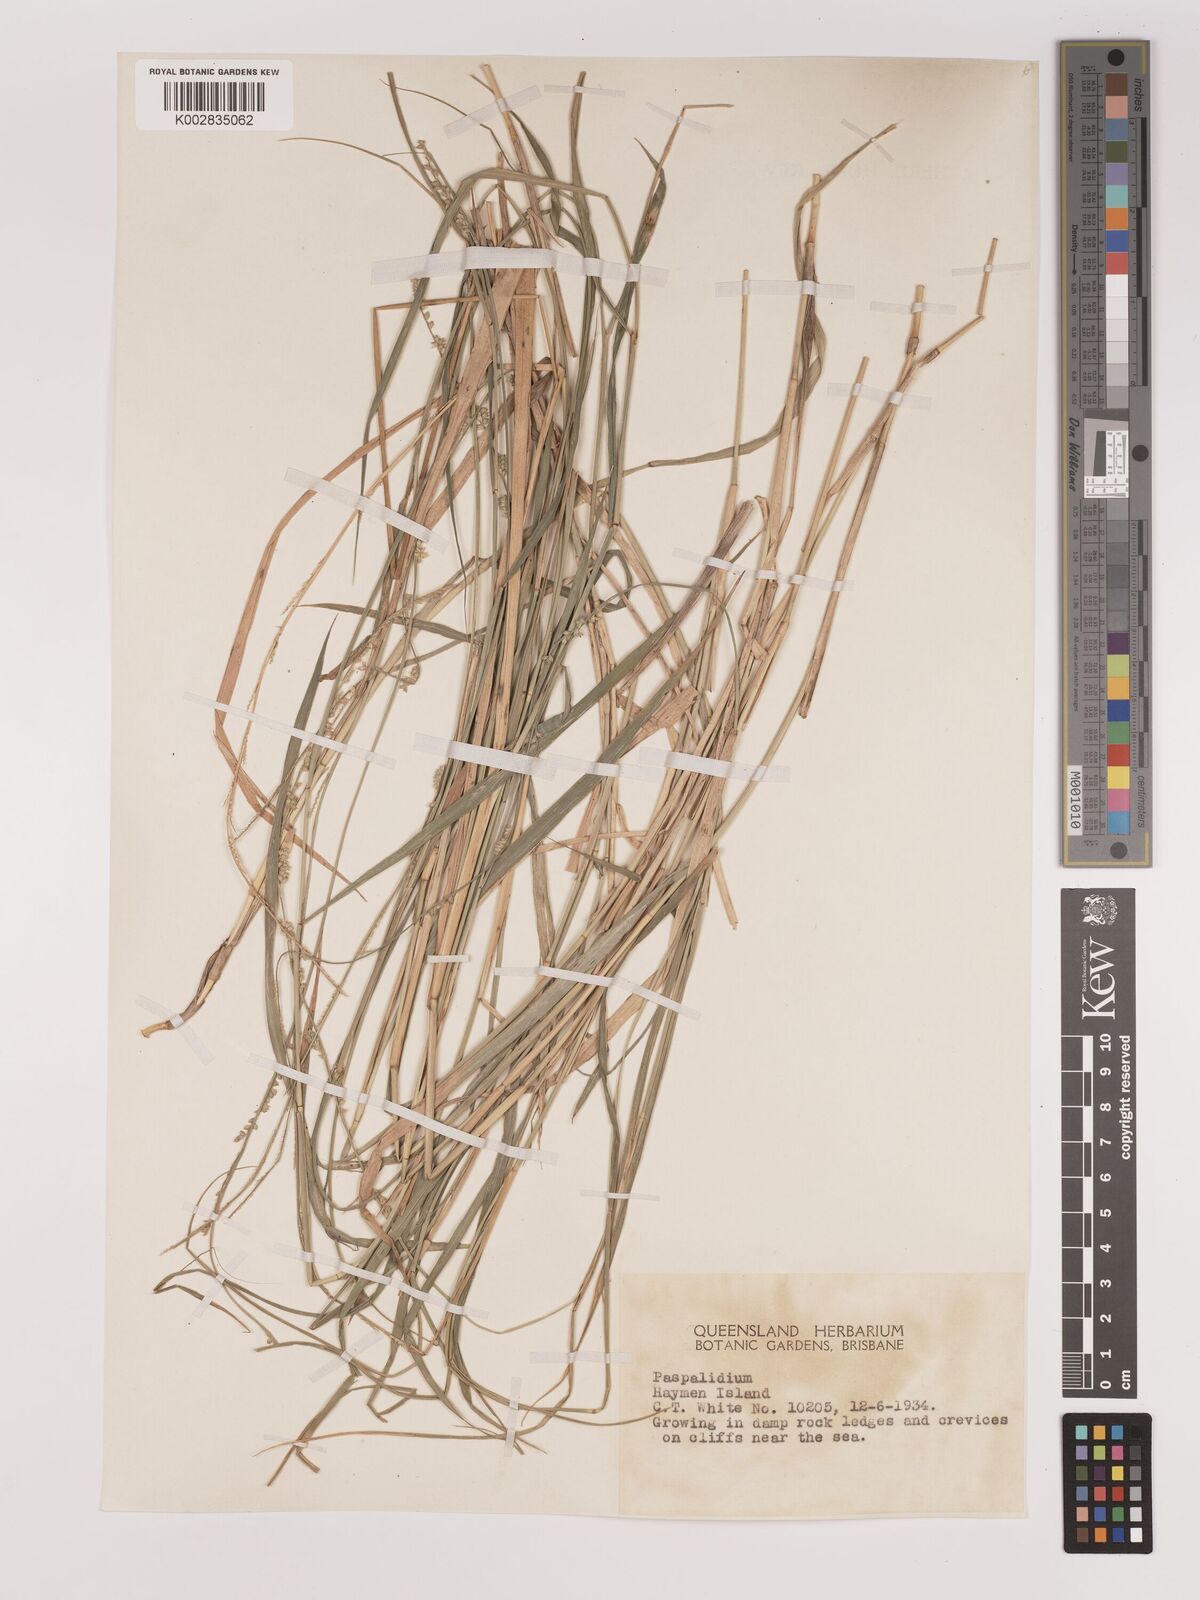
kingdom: Plantae
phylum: Tracheophyta
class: Liliopsida
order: Poales
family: Poaceae
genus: Setaria
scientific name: Setaria
